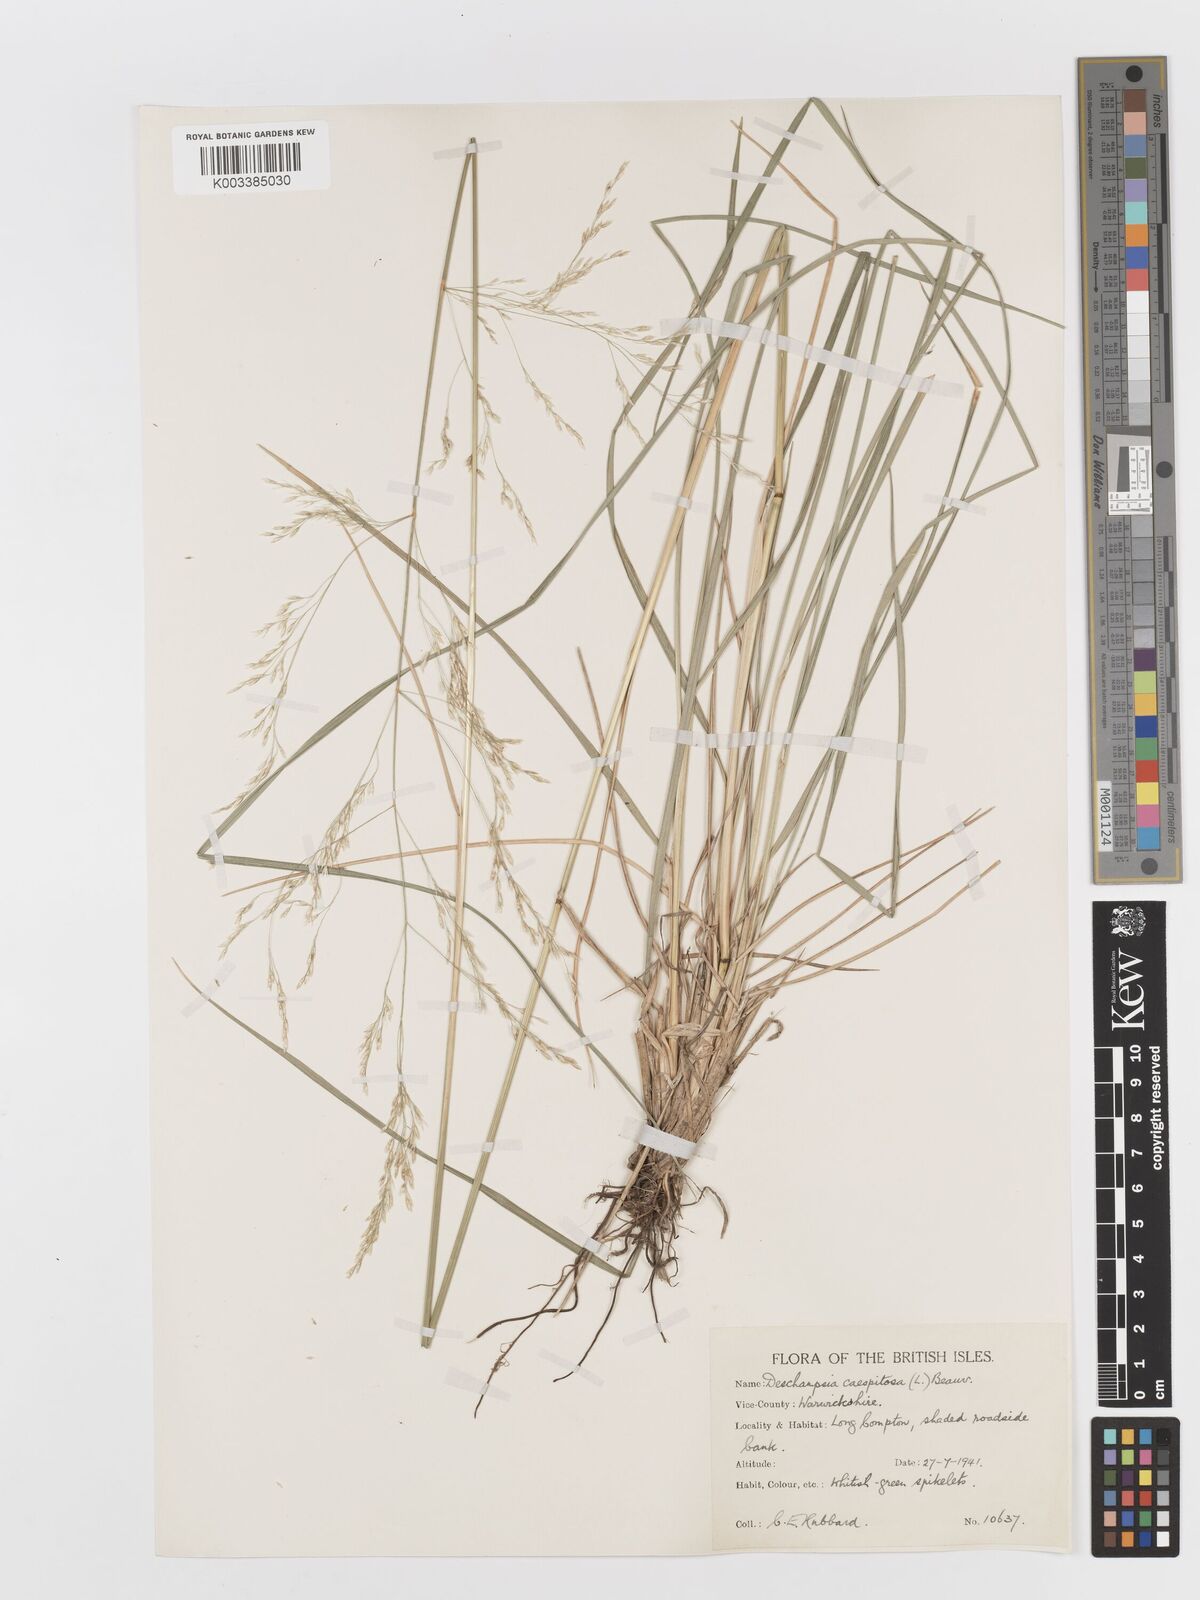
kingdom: Plantae
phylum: Tracheophyta
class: Liliopsida
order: Poales
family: Poaceae
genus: Deschampsia
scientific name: Deschampsia cespitosa
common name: Tufted hair-grass
